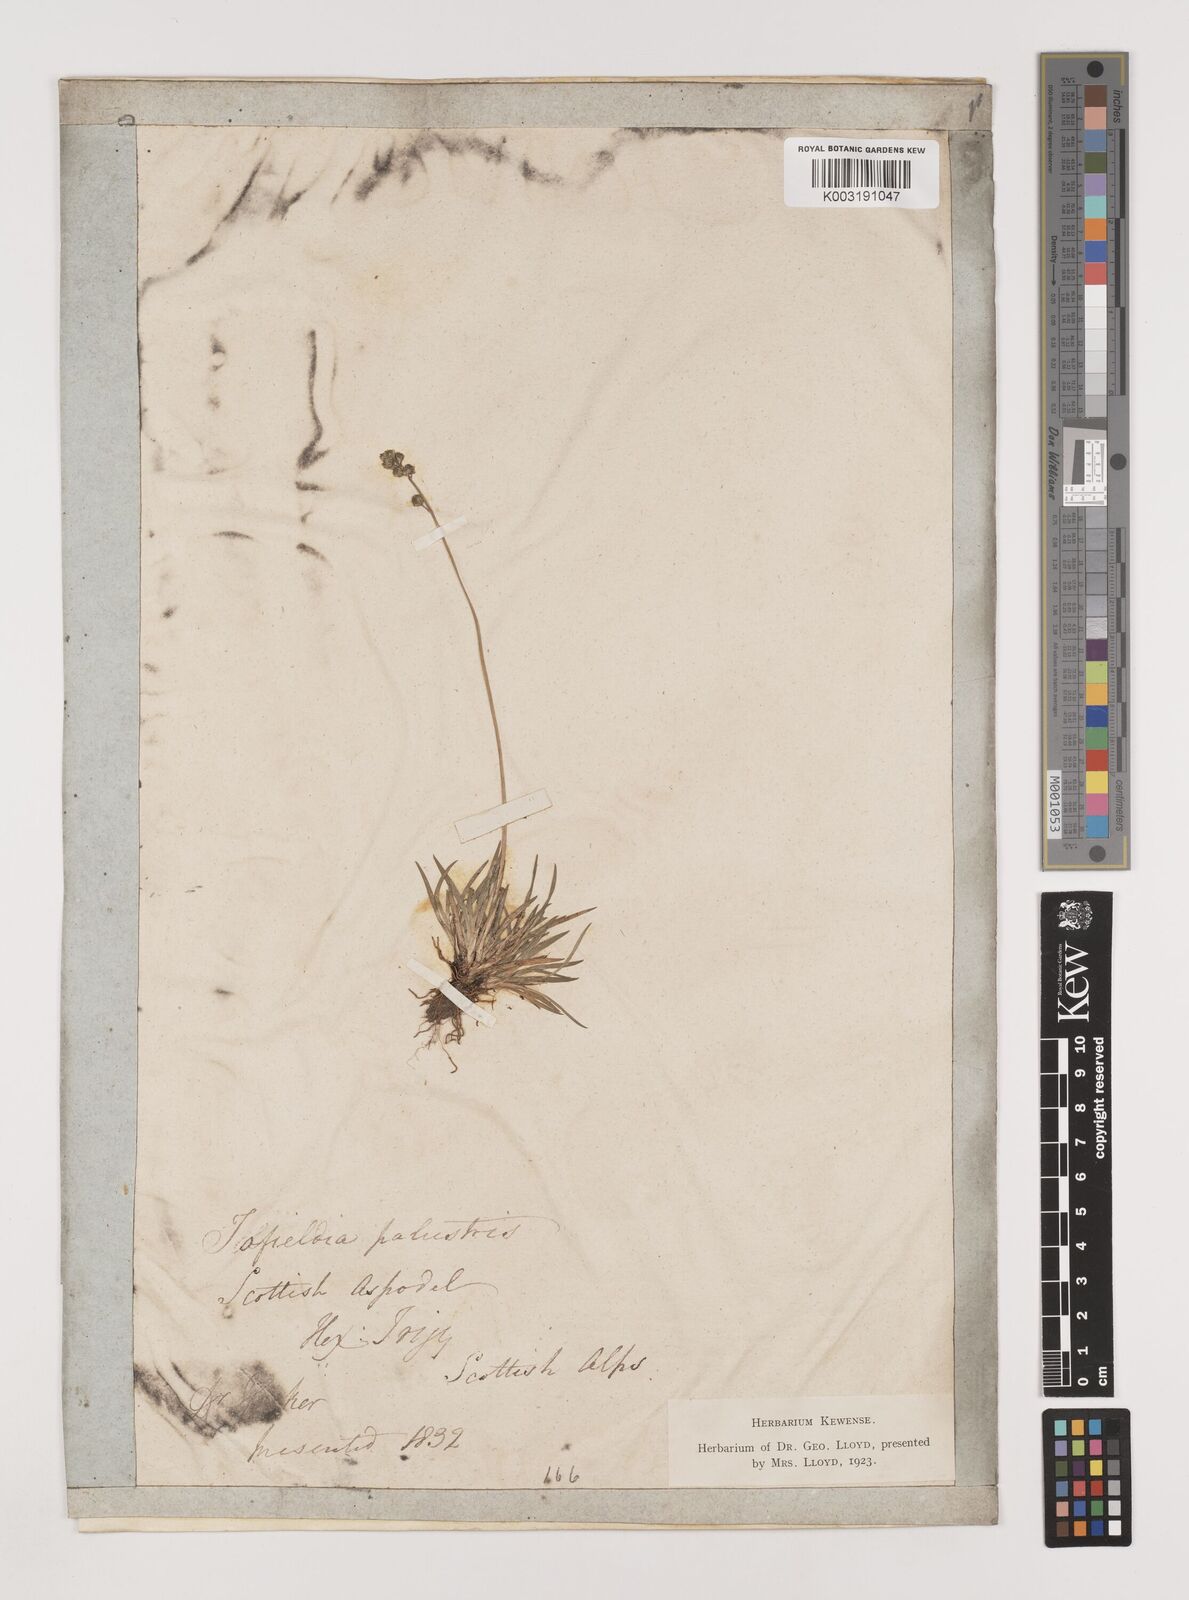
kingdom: Plantae
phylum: Tracheophyta
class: Liliopsida
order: Alismatales
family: Tofieldiaceae
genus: Tofieldia
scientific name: Tofieldia pusilla
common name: Scottish false asphodel
